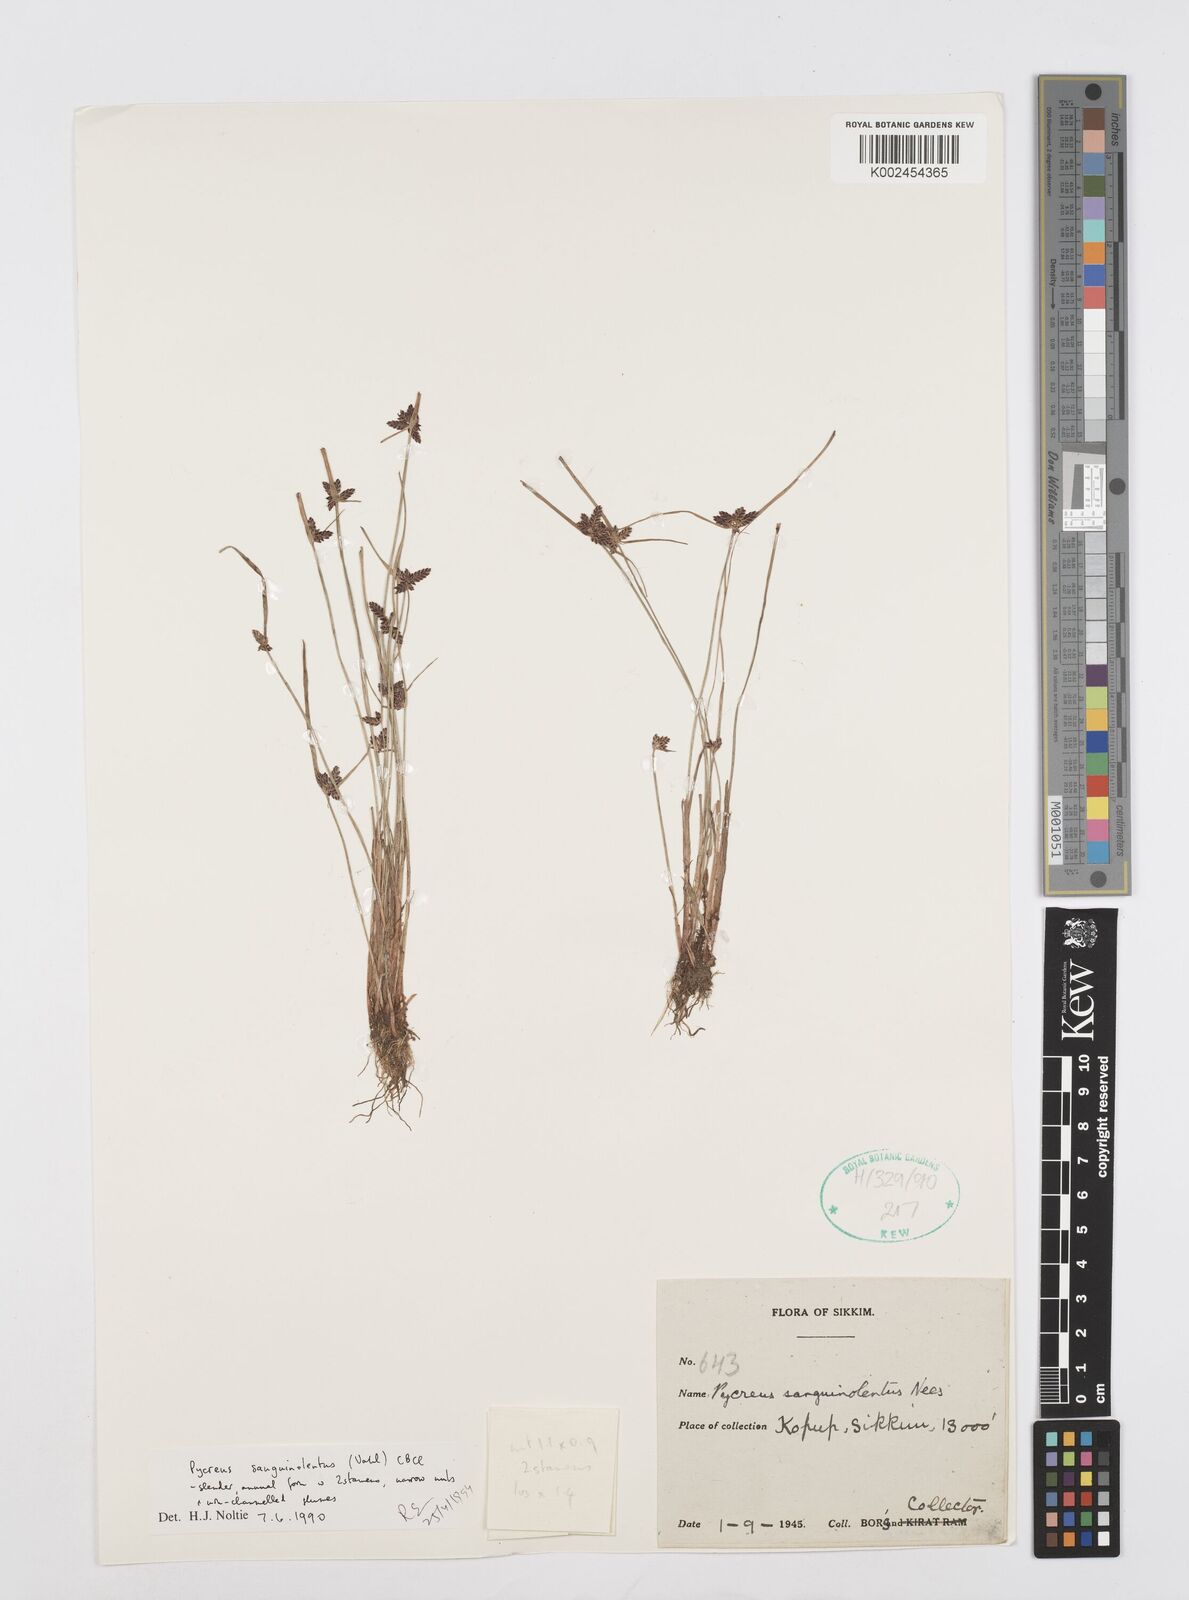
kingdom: Plantae
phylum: Tracheophyta
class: Liliopsida
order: Poales
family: Cyperaceae
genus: Cyperus
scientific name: Cyperus sanguinolentus
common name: Purpleglume flatsedge
